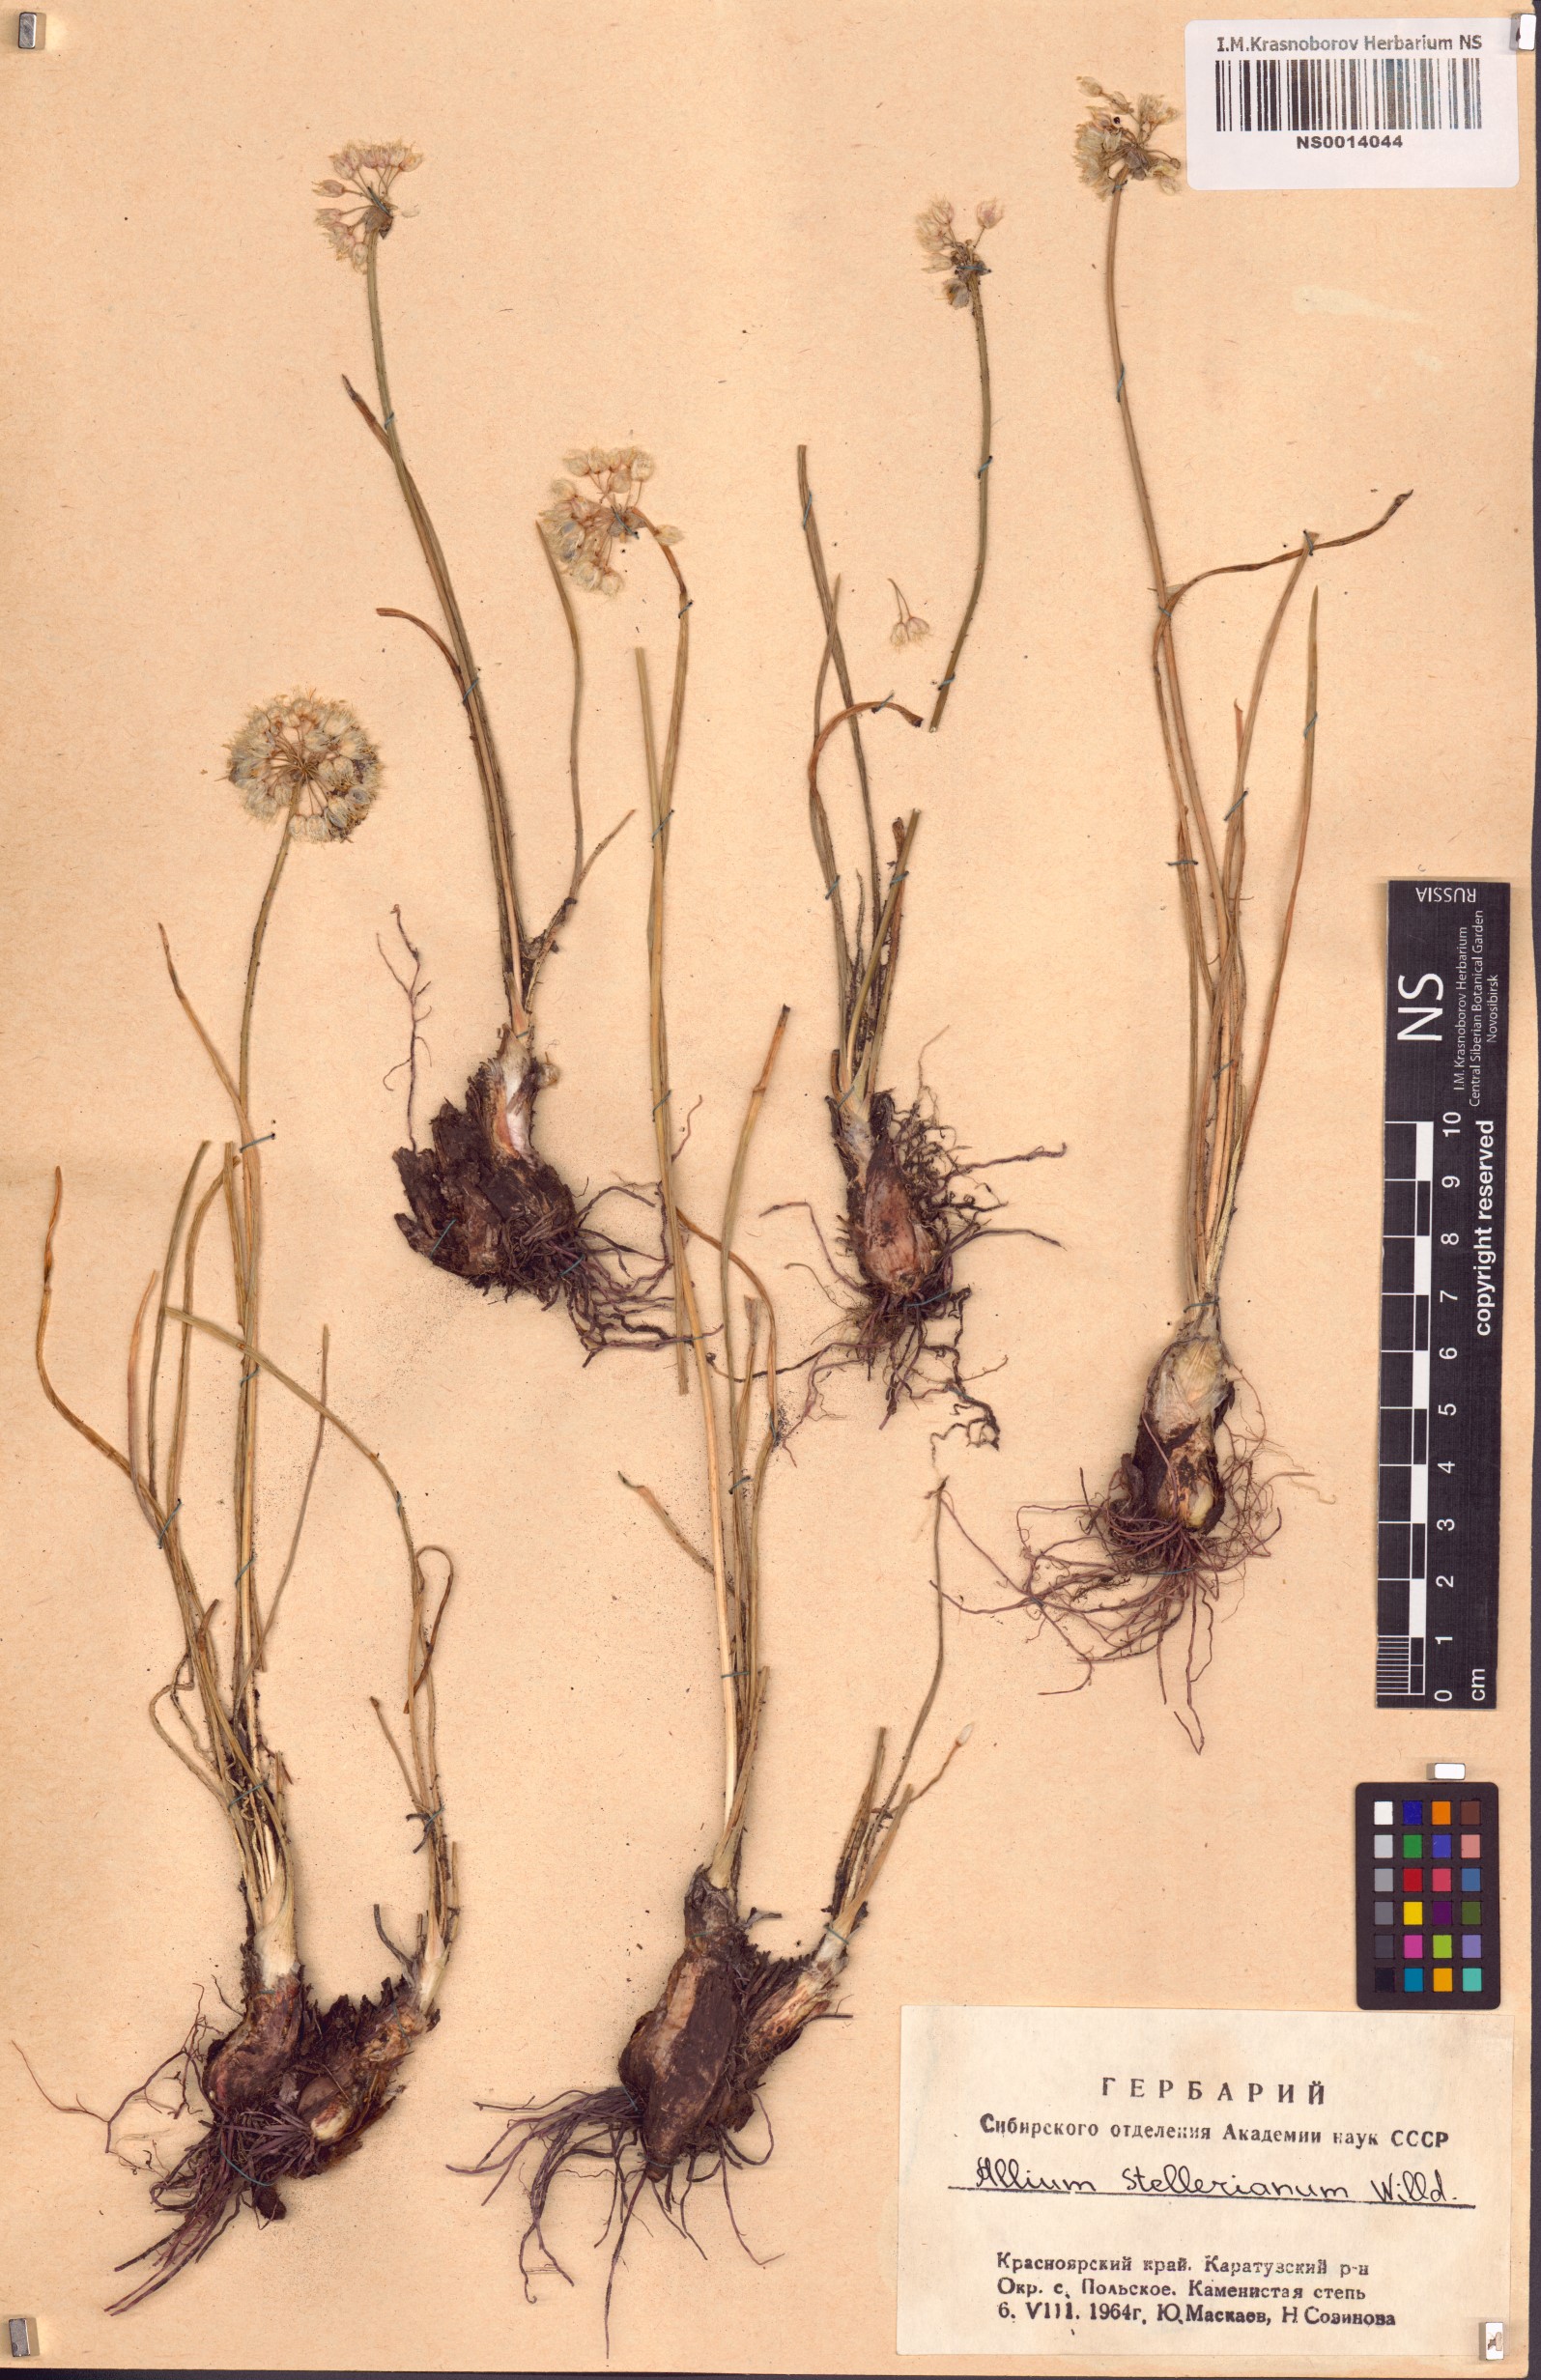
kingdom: Plantae
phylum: Tracheophyta
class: Liliopsida
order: Asparagales
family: Amaryllidaceae
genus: Allium
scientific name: Allium stellerianum
